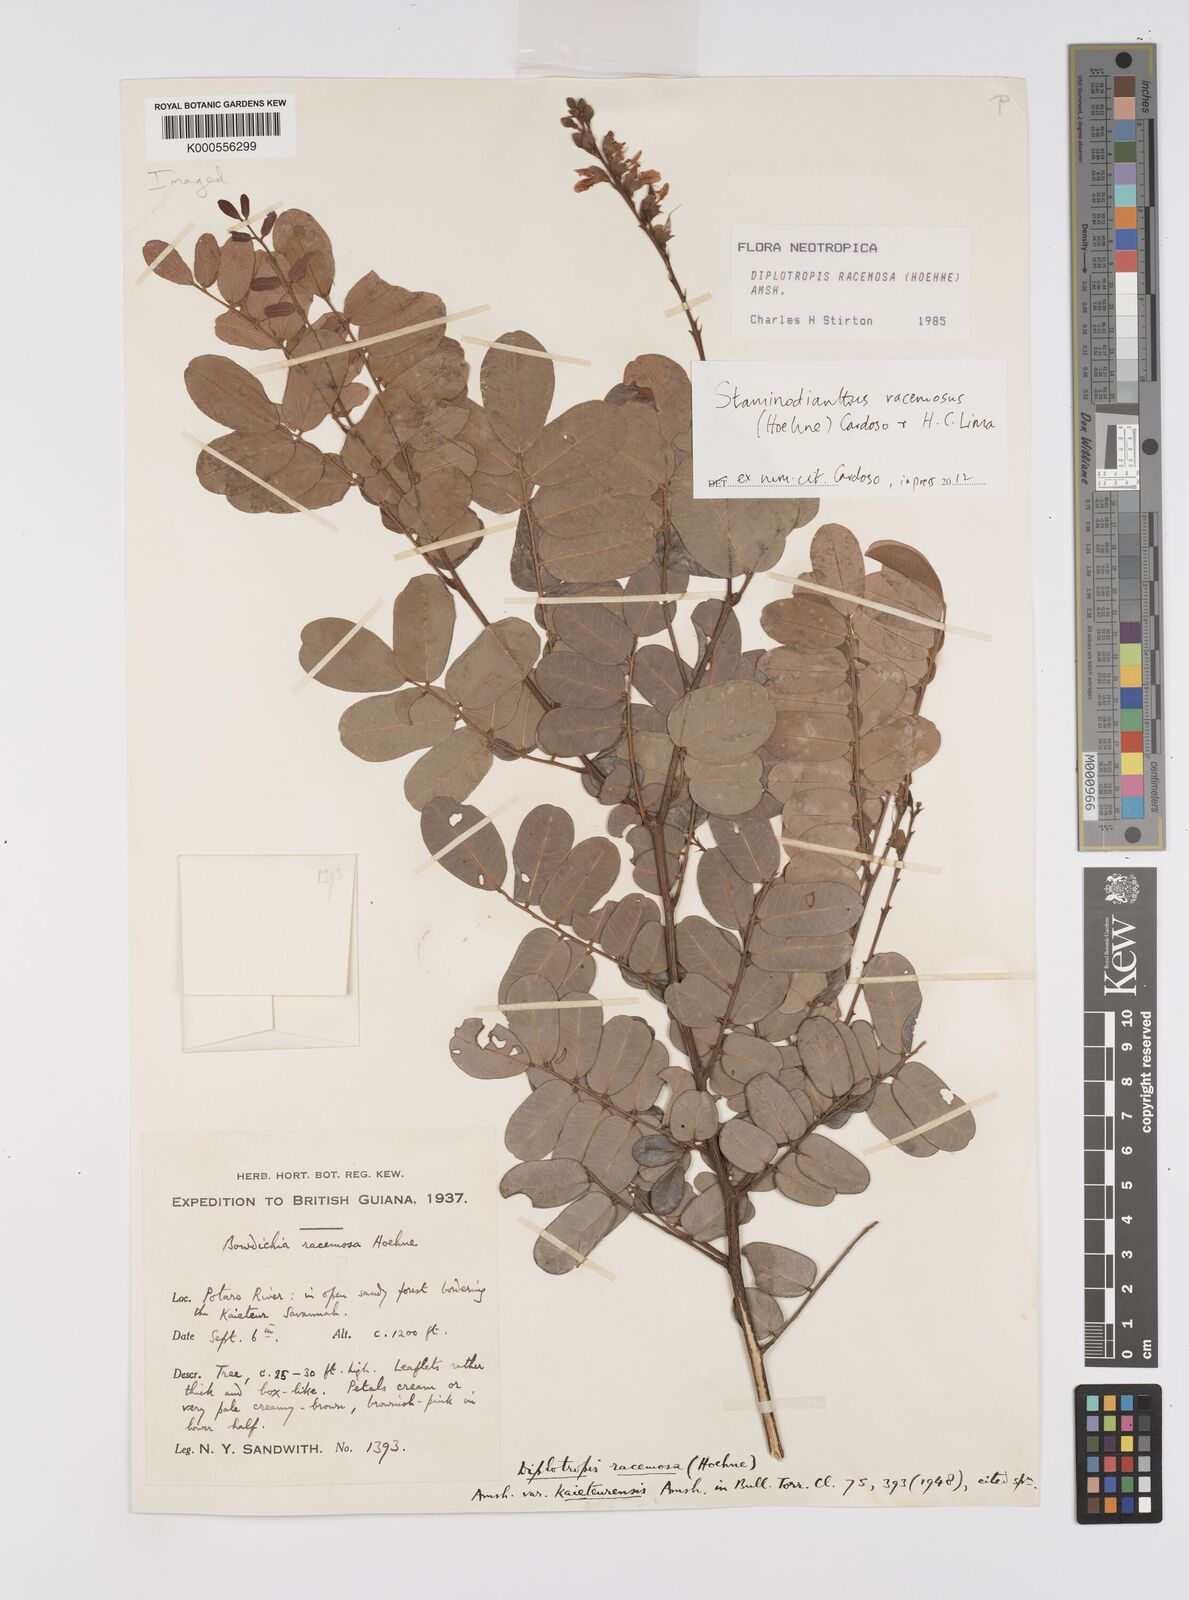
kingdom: Plantae
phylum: Tracheophyta
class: Magnoliopsida
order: Fabales
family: Fabaceae
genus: Staminodianthus
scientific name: Staminodianthus racemosus
